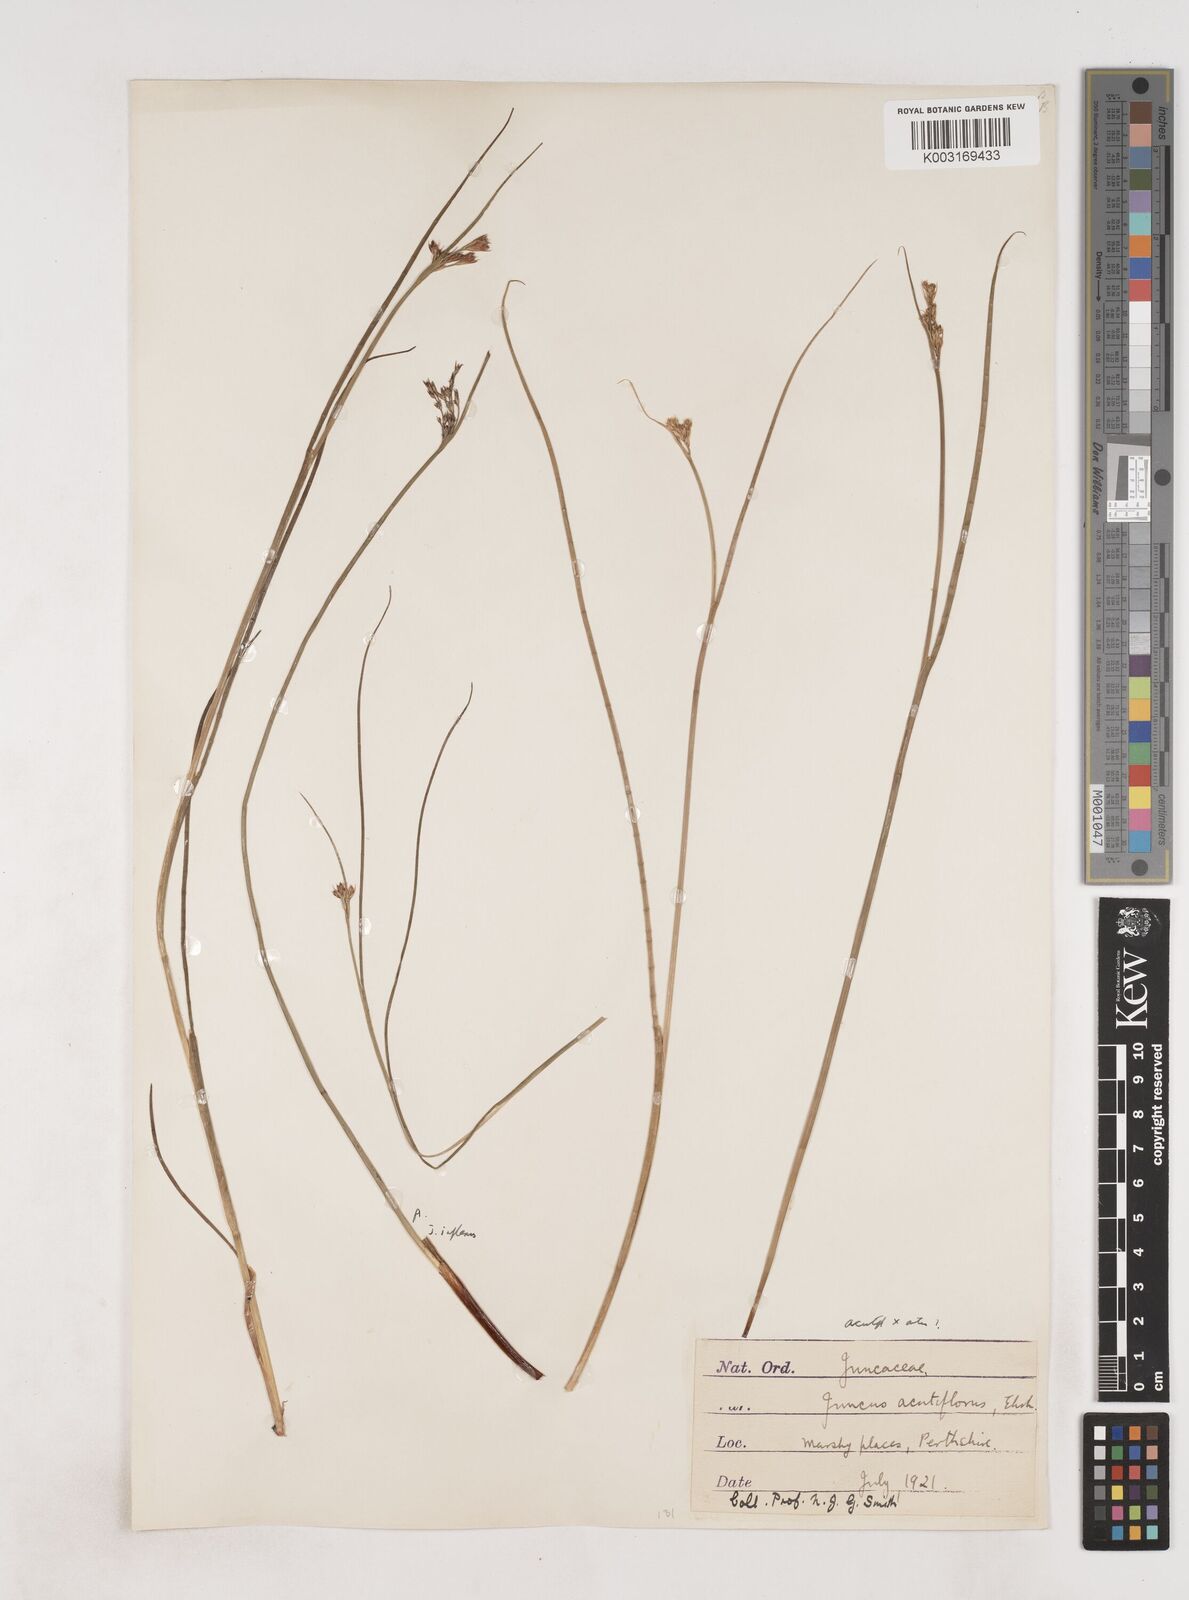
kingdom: Plantae
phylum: Tracheophyta
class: Liliopsida
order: Poales
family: Juncaceae
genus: Juncus
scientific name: Juncus acutiflorus
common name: Sharp-flowered rush
